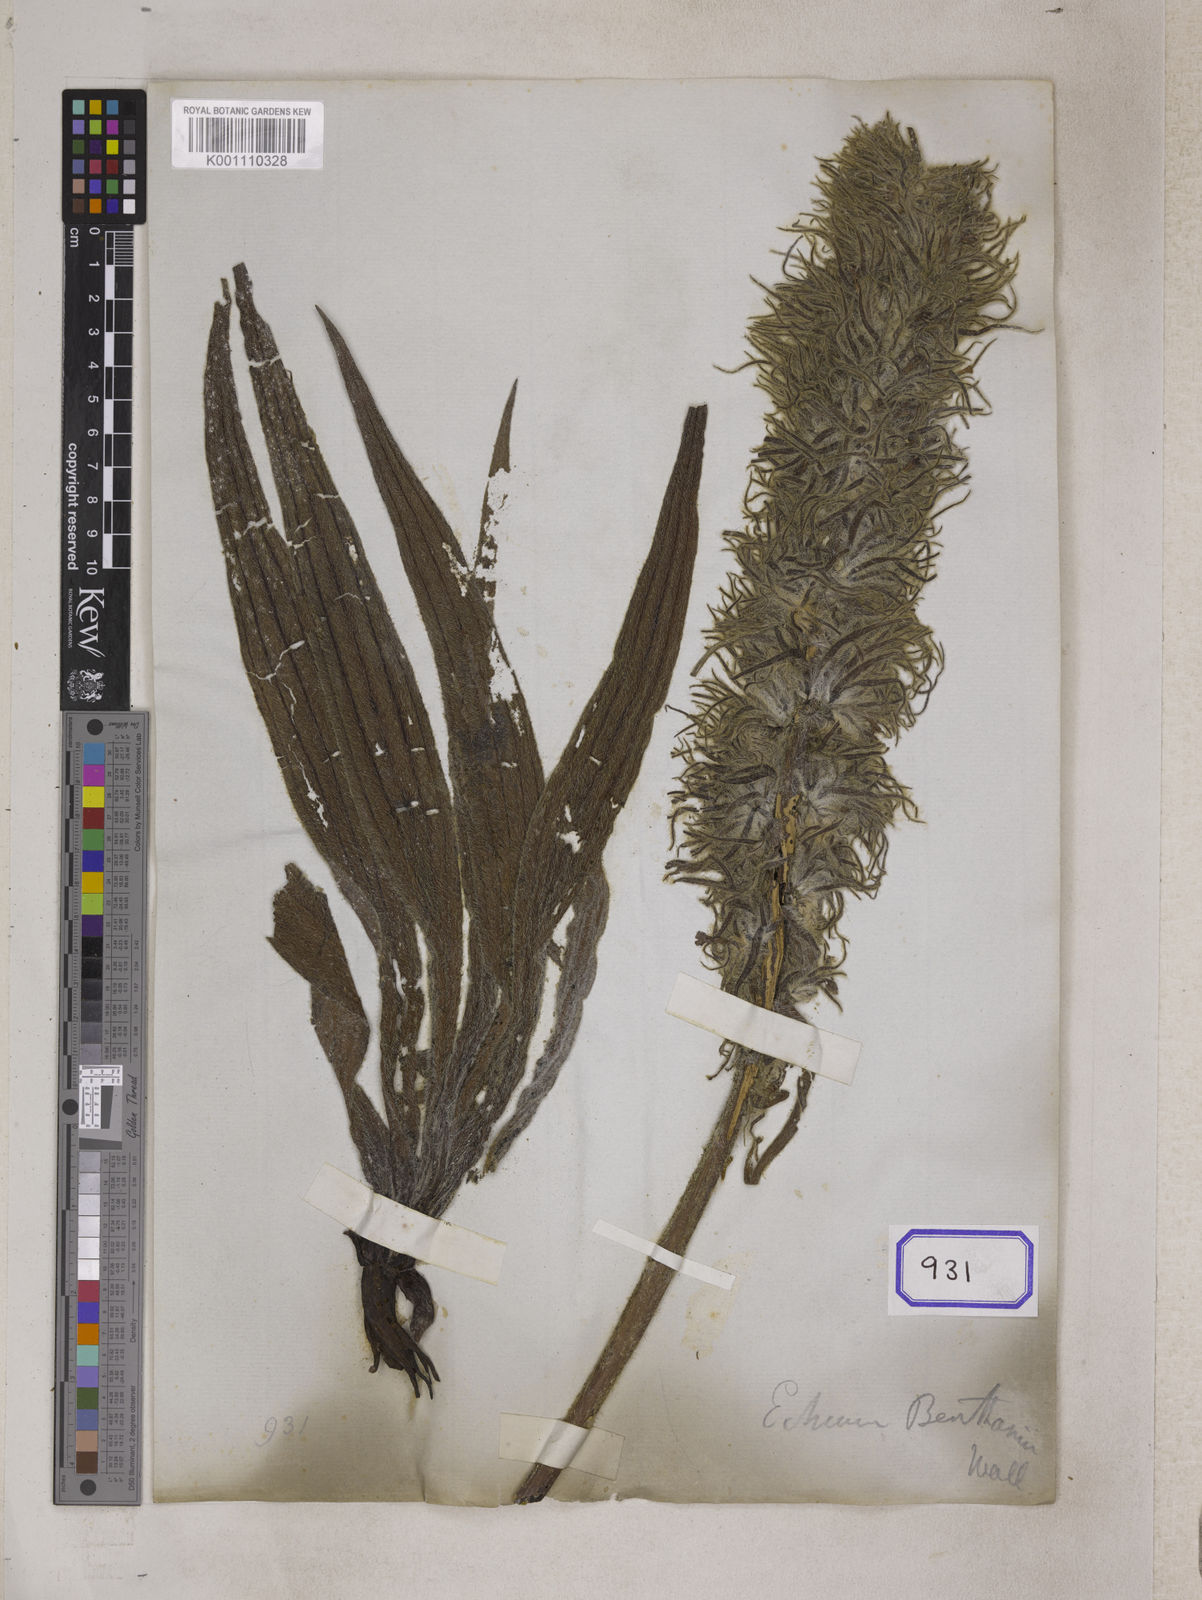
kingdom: Plantae
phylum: Tracheophyta
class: Magnoliopsida
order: Boraginales
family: Boraginaceae
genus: Echium
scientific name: Echium
